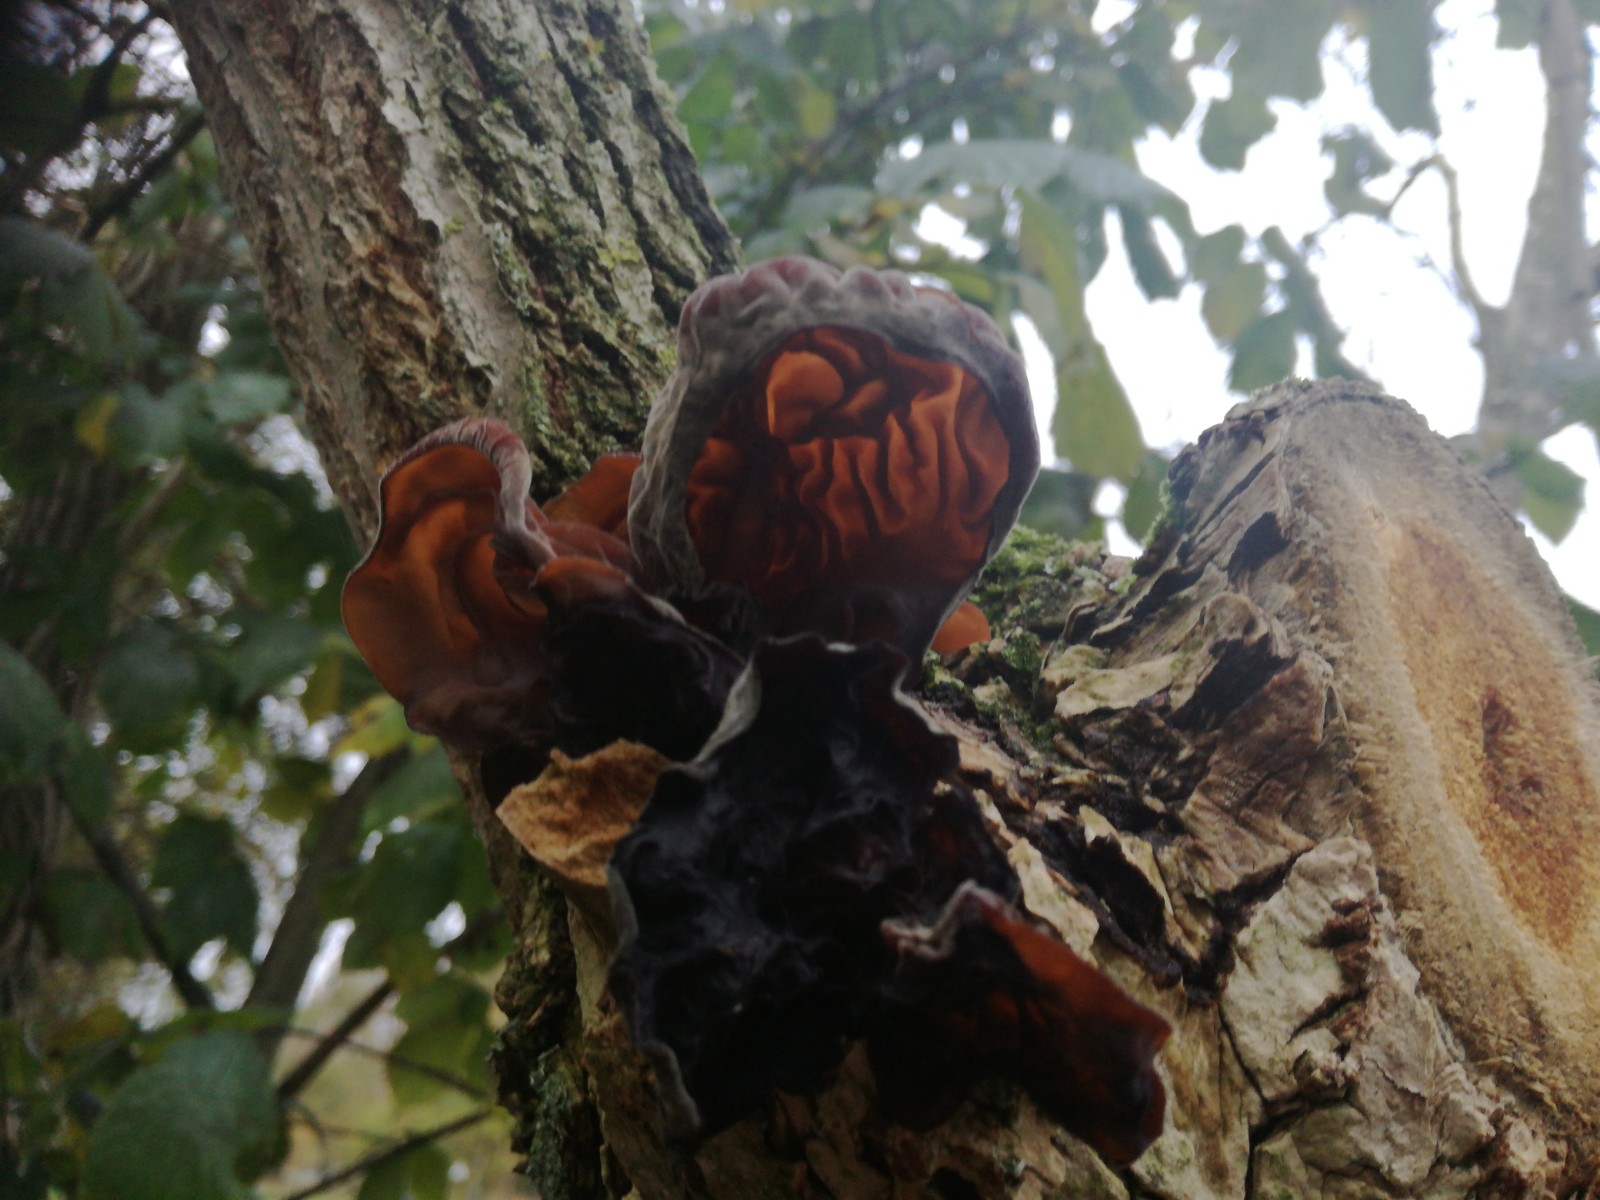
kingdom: Fungi
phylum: Basidiomycota
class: Agaricomycetes
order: Auriculariales
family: Auriculariaceae
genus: Auricularia
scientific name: Auricularia auricula-judae
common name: almindelig judasøre
